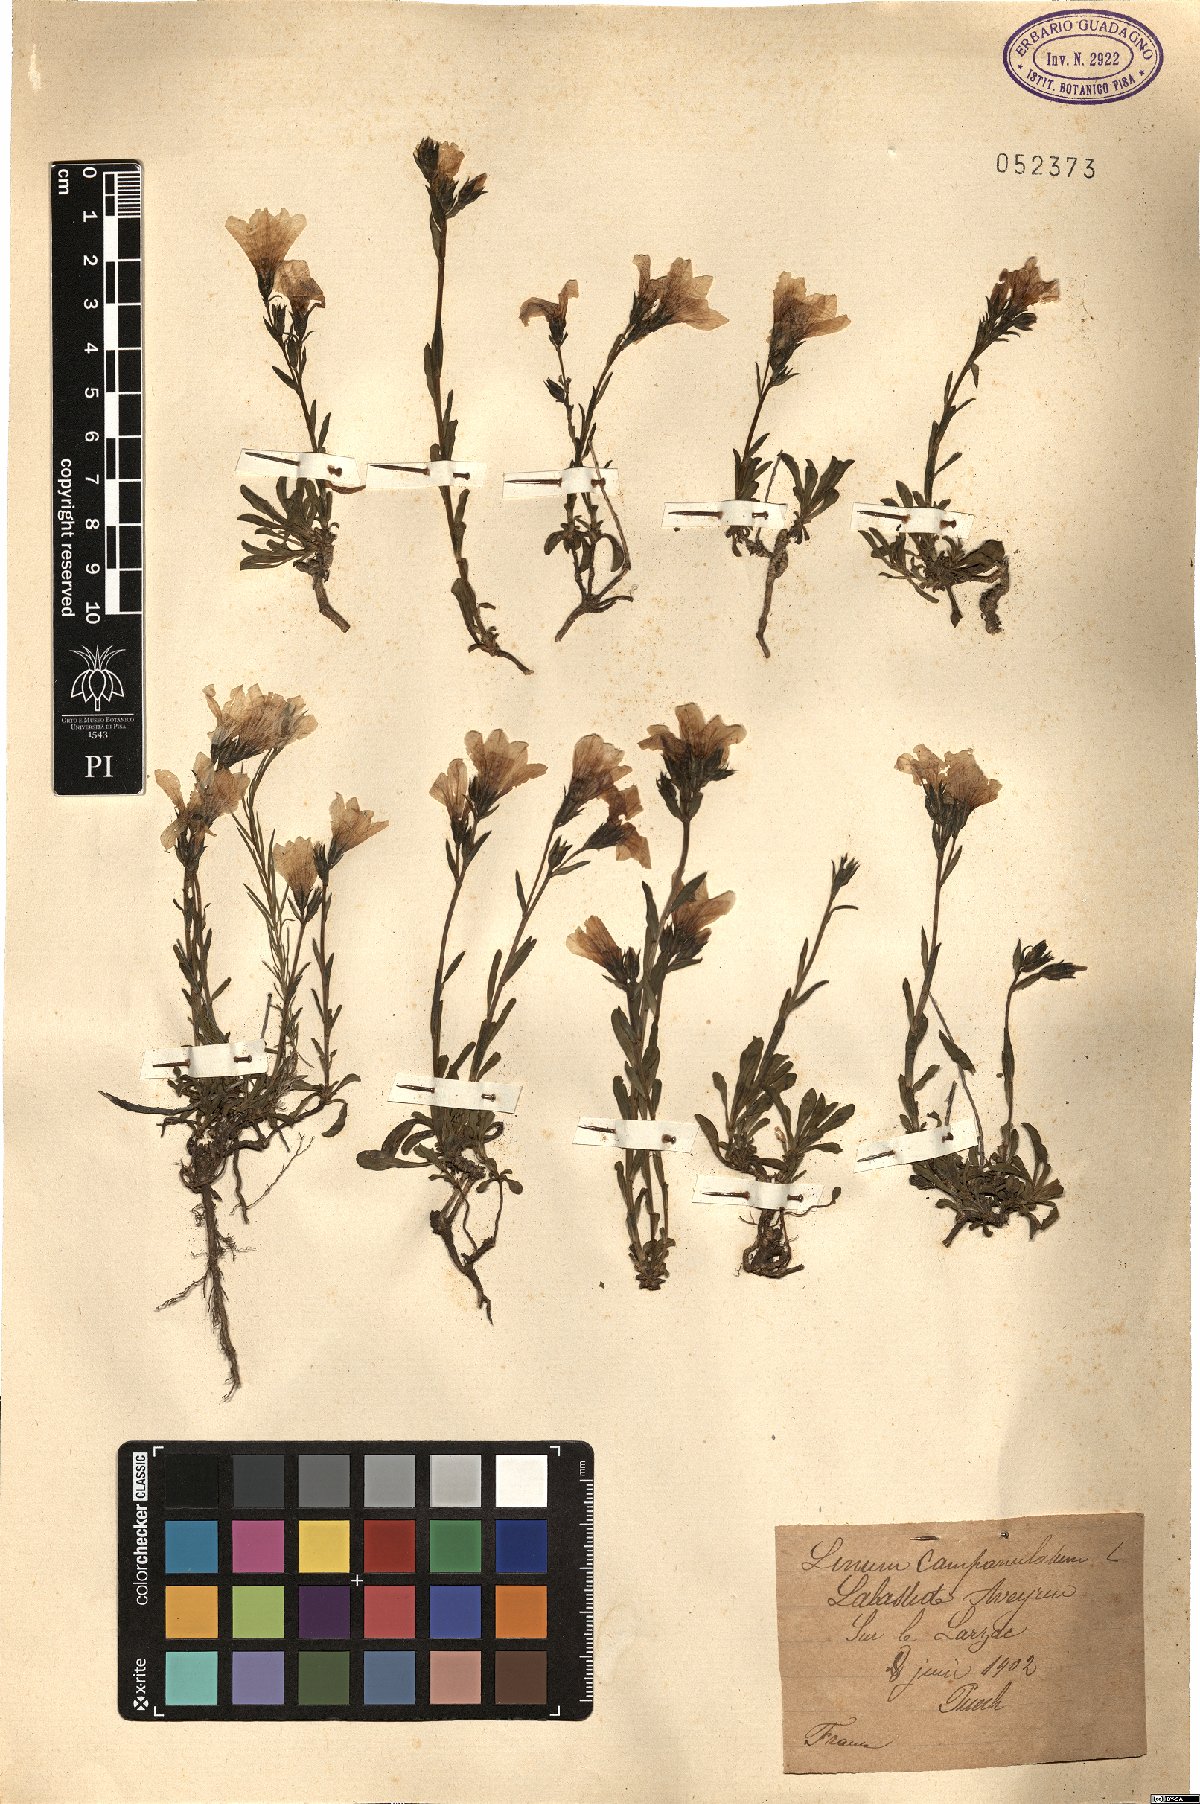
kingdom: Plantae
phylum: Tracheophyta
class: Magnoliopsida
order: Malpighiales
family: Linaceae
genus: Linum
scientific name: Linum campanulatum
